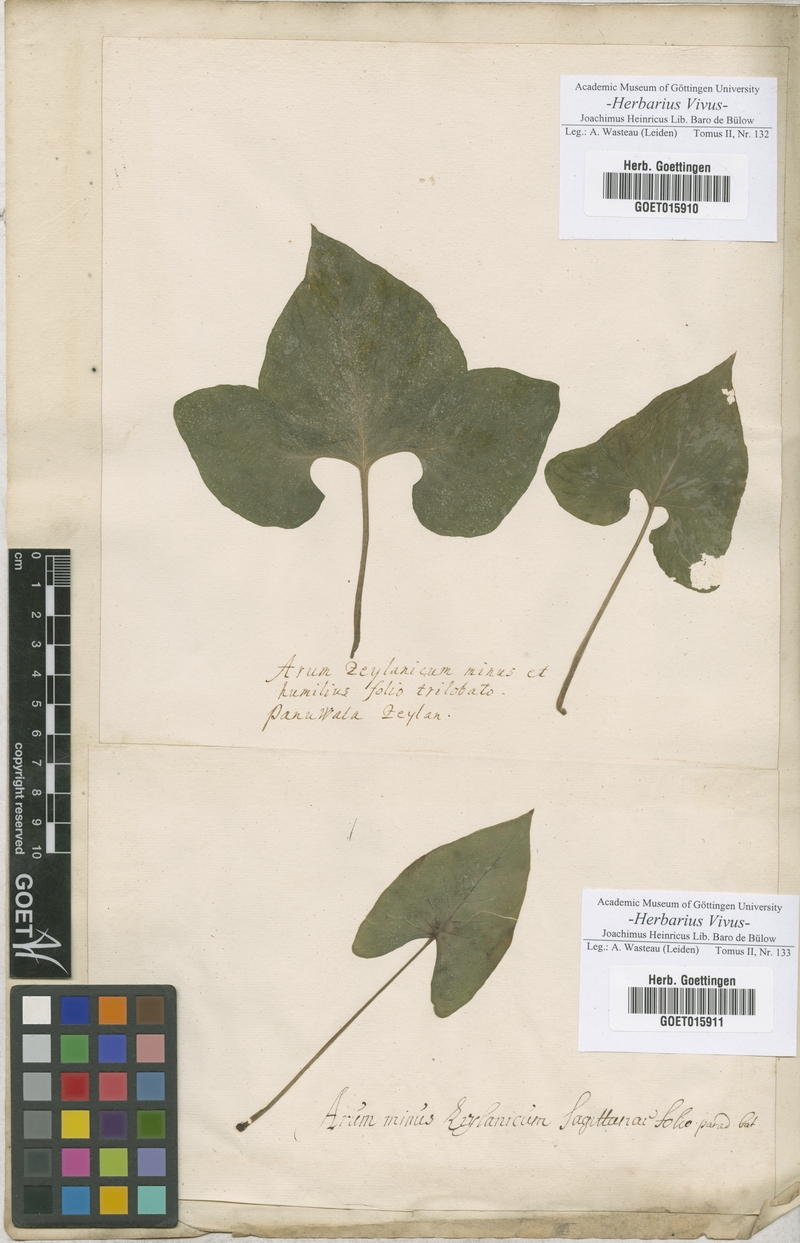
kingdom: Plantae
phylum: Tracheophyta
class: Liliopsida
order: Alismatales
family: Araceae
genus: Arum
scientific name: Arum
